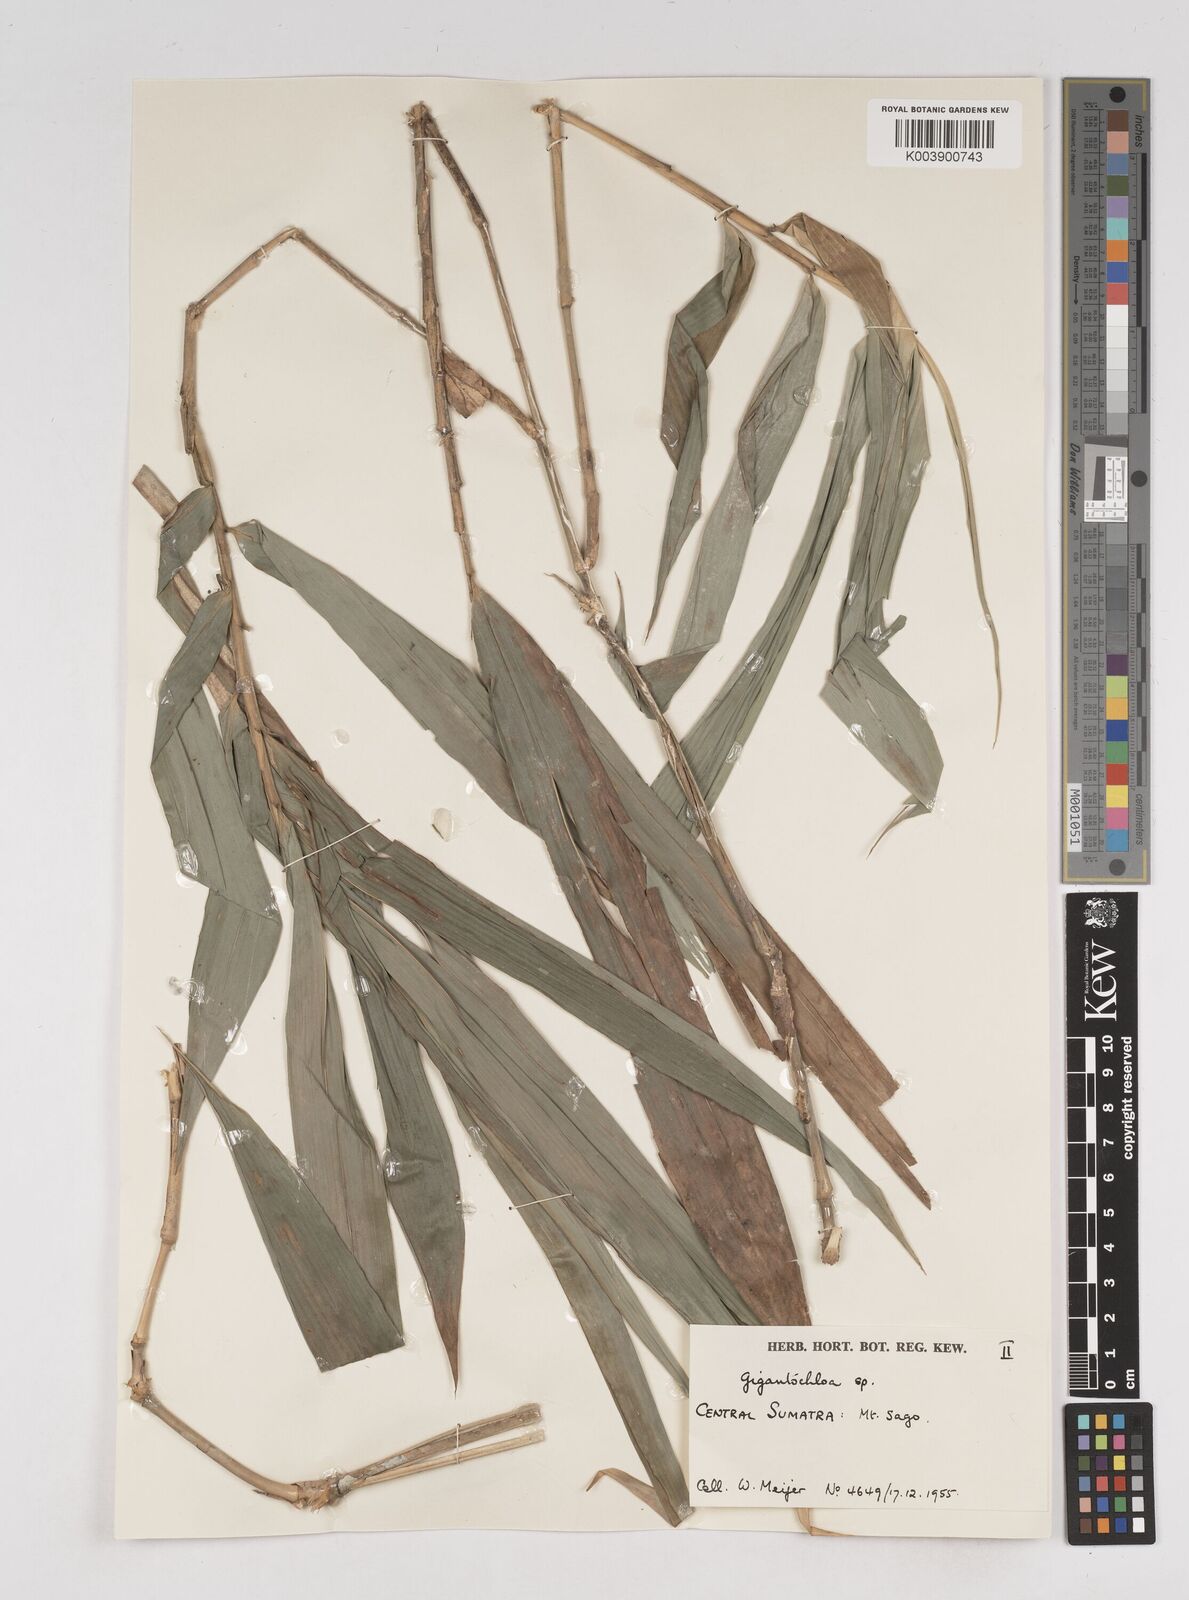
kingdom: Plantae
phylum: Tracheophyta
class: Liliopsida
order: Poales
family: Poaceae
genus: Gigantochloa
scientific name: Gigantochloa
